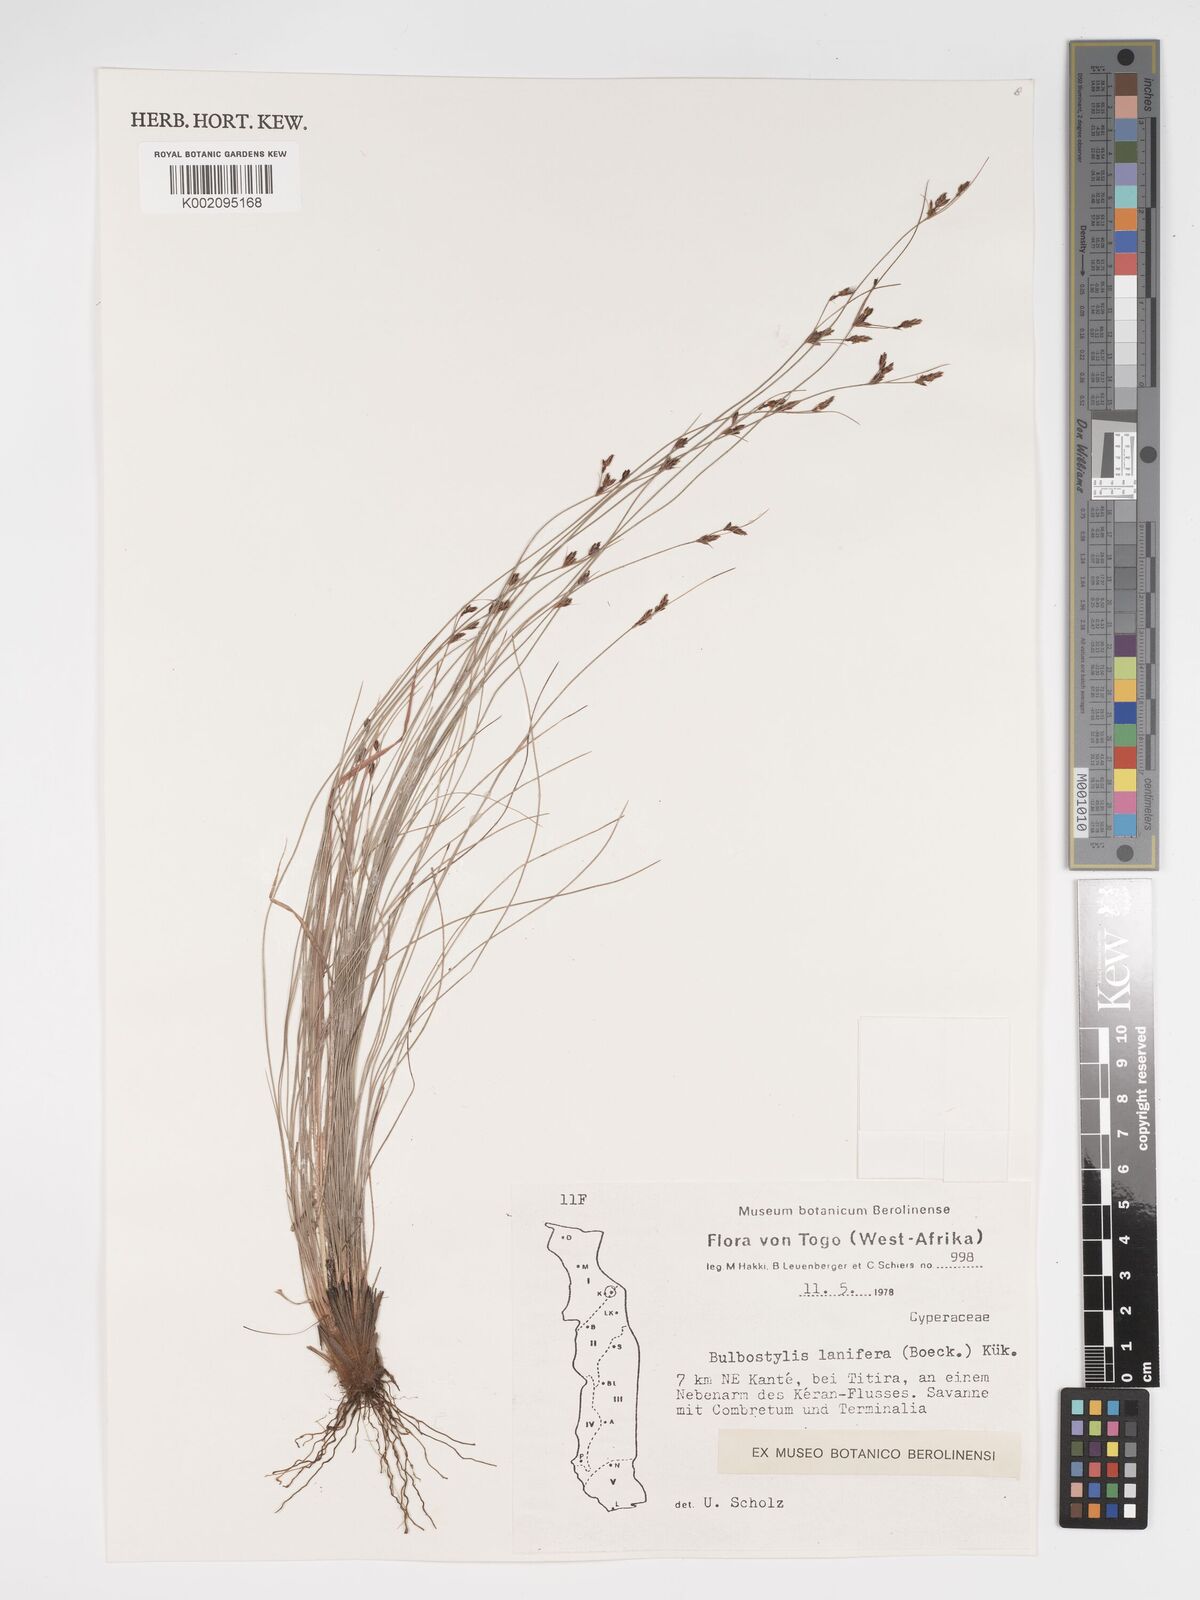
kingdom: Plantae
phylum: Tracheophyta
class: Liliopsida
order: Poales
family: Cyperaceae
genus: Bulbostylis
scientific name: Bulbostylis lanifera
